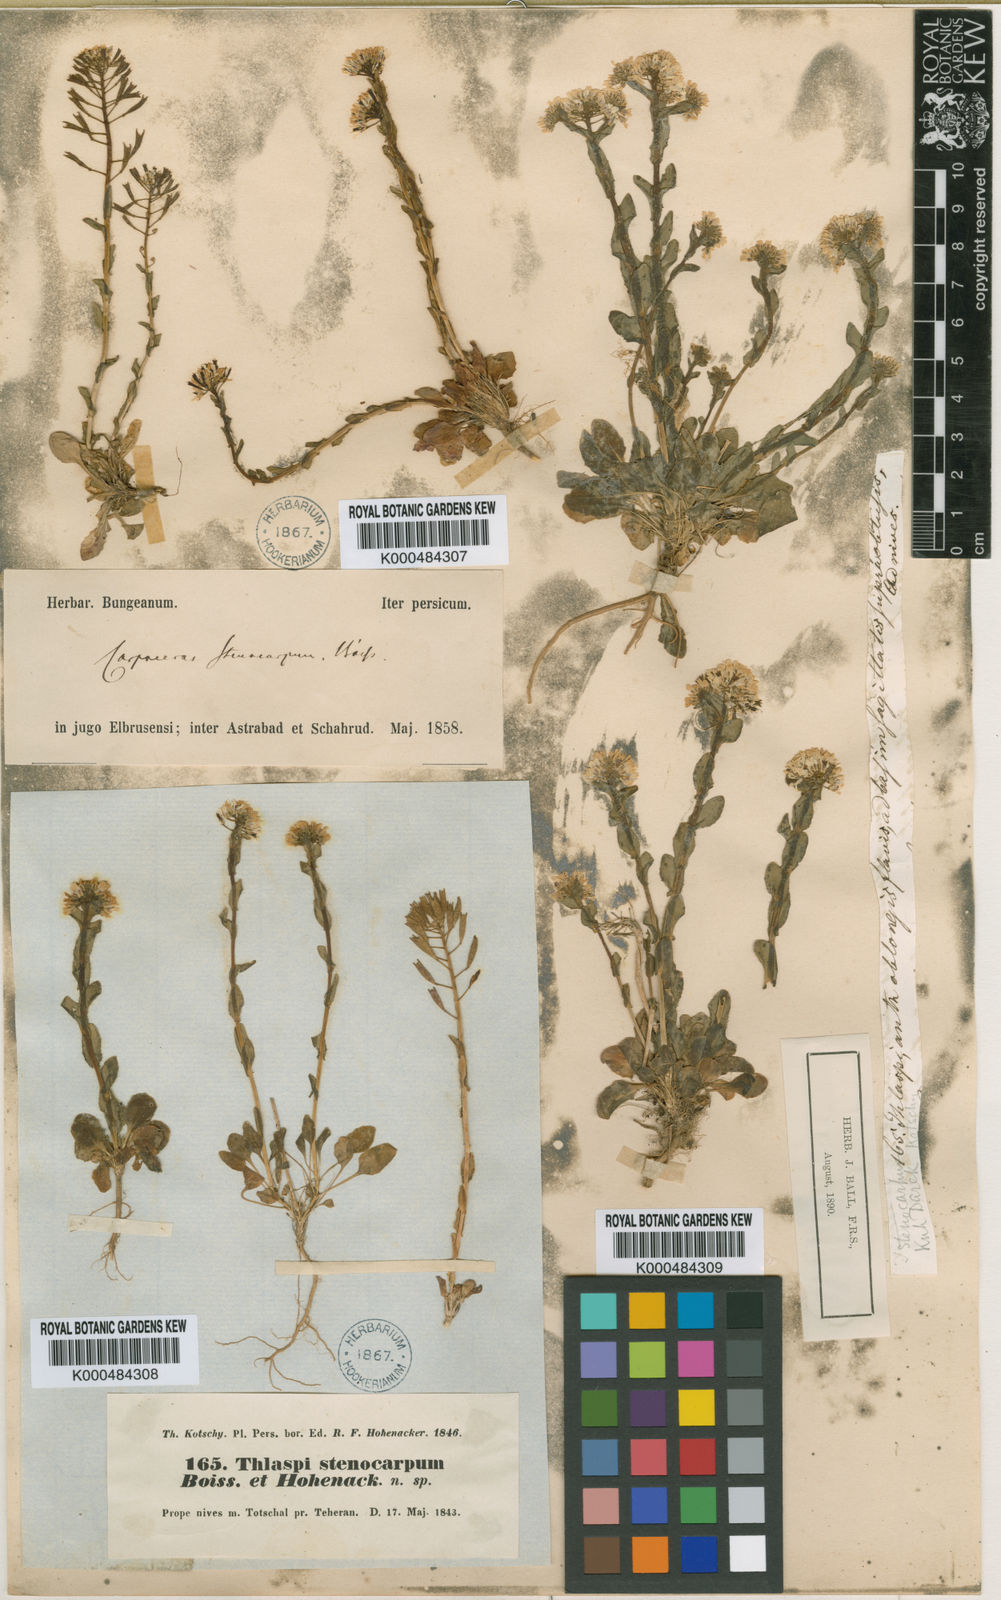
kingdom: Plantae
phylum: Tracheophyta
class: Magnoliopsida
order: Brassicales
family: Brassicaceae
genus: Noccaea
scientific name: Noccaea stenocarpa
